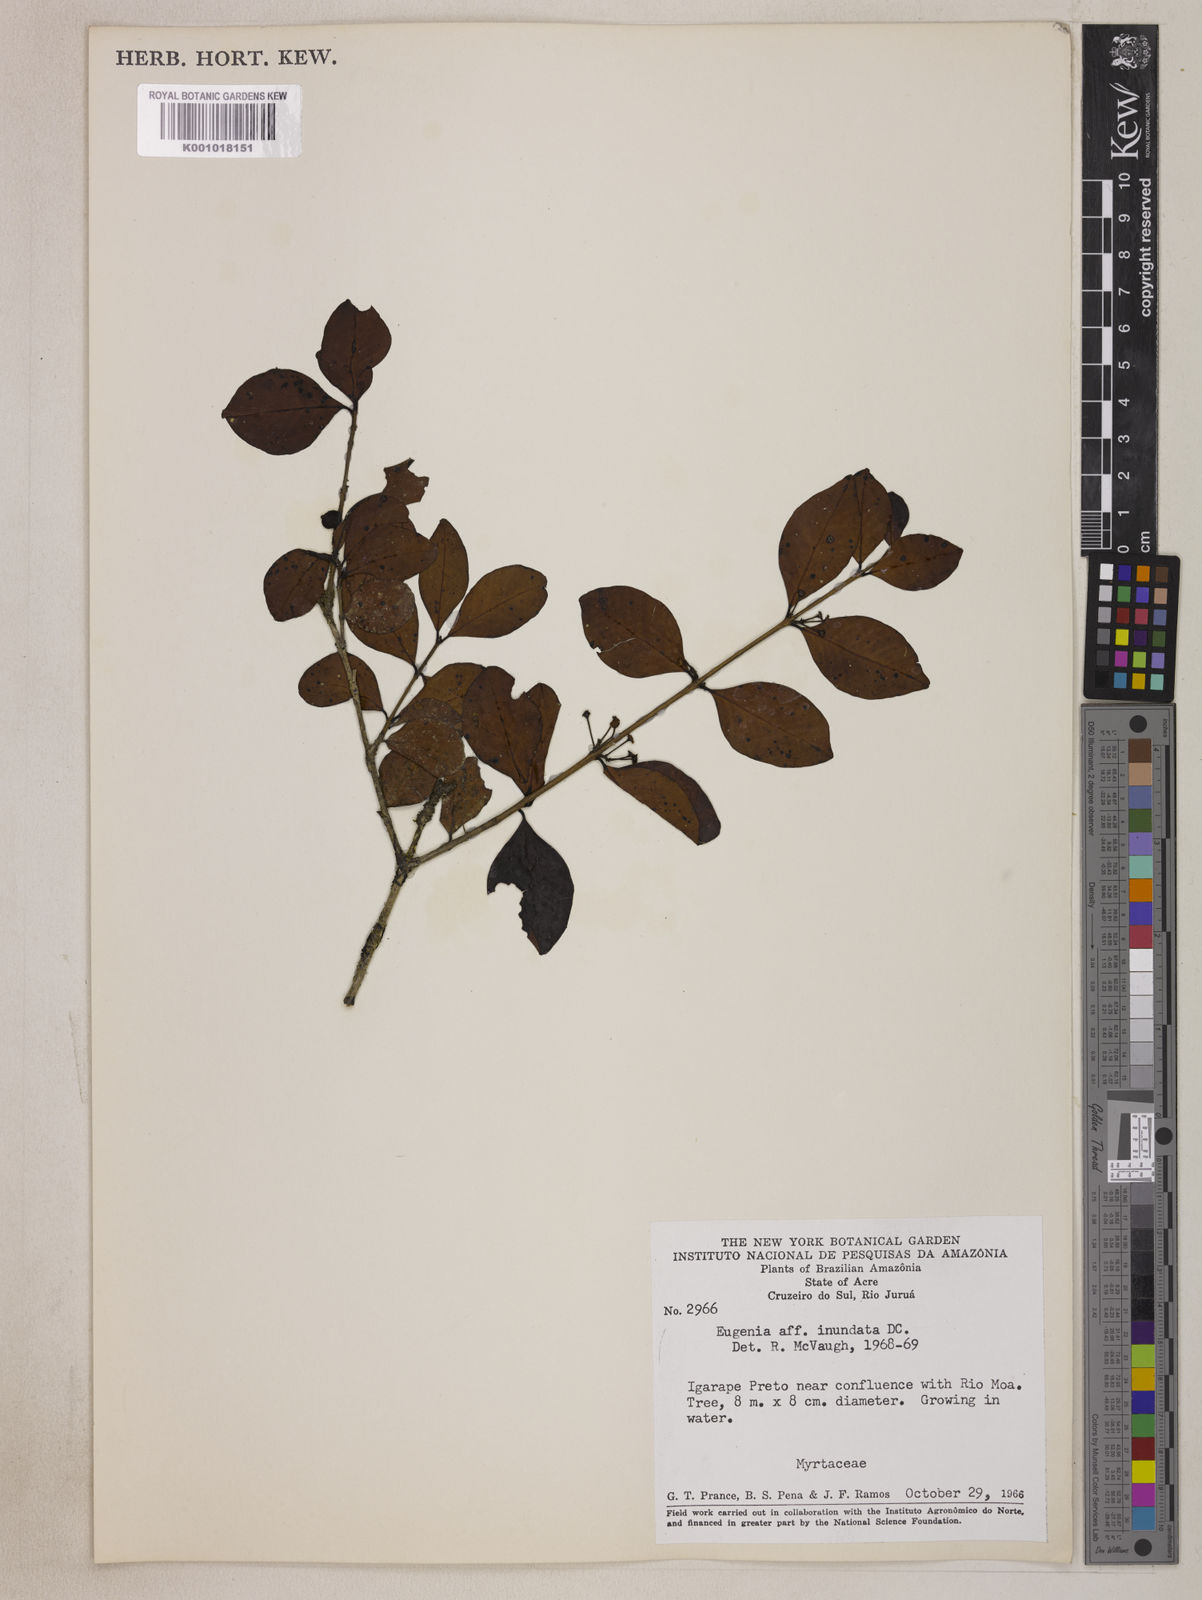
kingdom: Plantae
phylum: Tracheophyta
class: Magnoliopsida
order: Myrtales
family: Myrtaceae
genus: Eugenia
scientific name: Eugenia inundata
